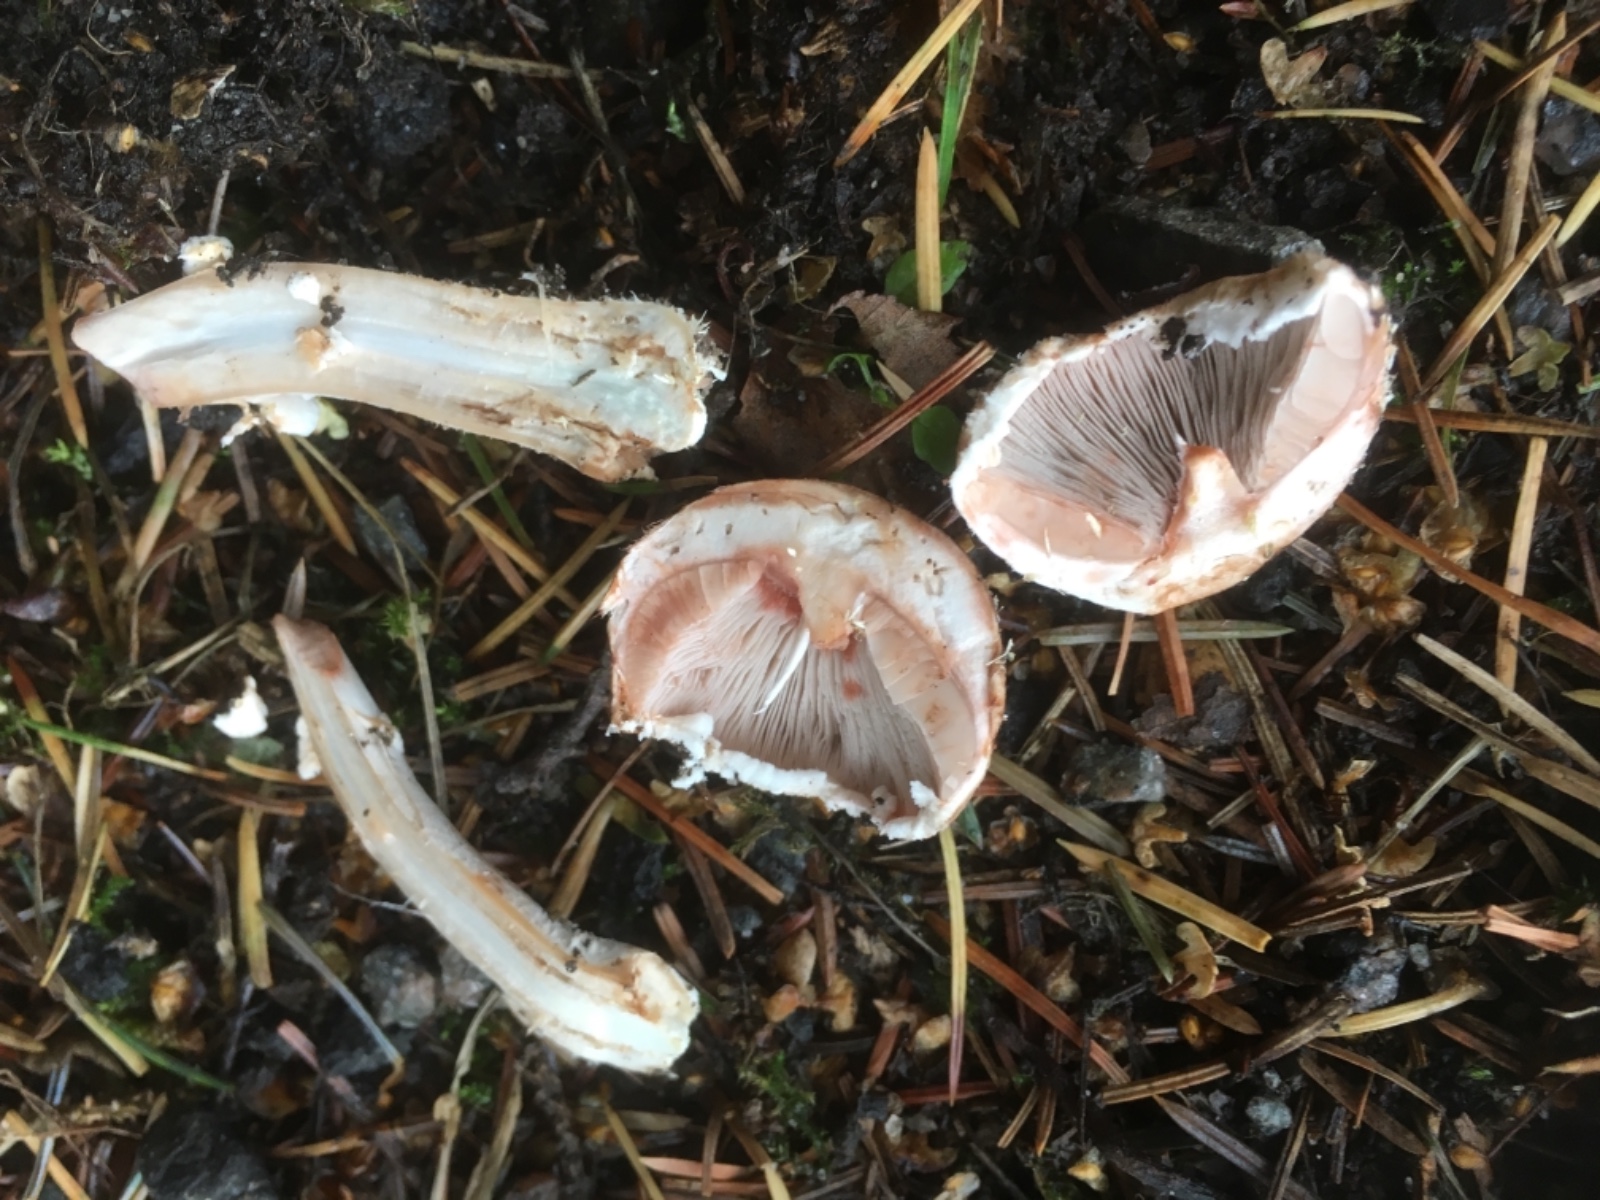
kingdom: Fungi
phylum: Basidiomycota
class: Agaricomycetes
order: Agaricales
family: Agaricaceae
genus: Agaricus
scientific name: Agaricus sylvaticus
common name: lille blod-champignon
